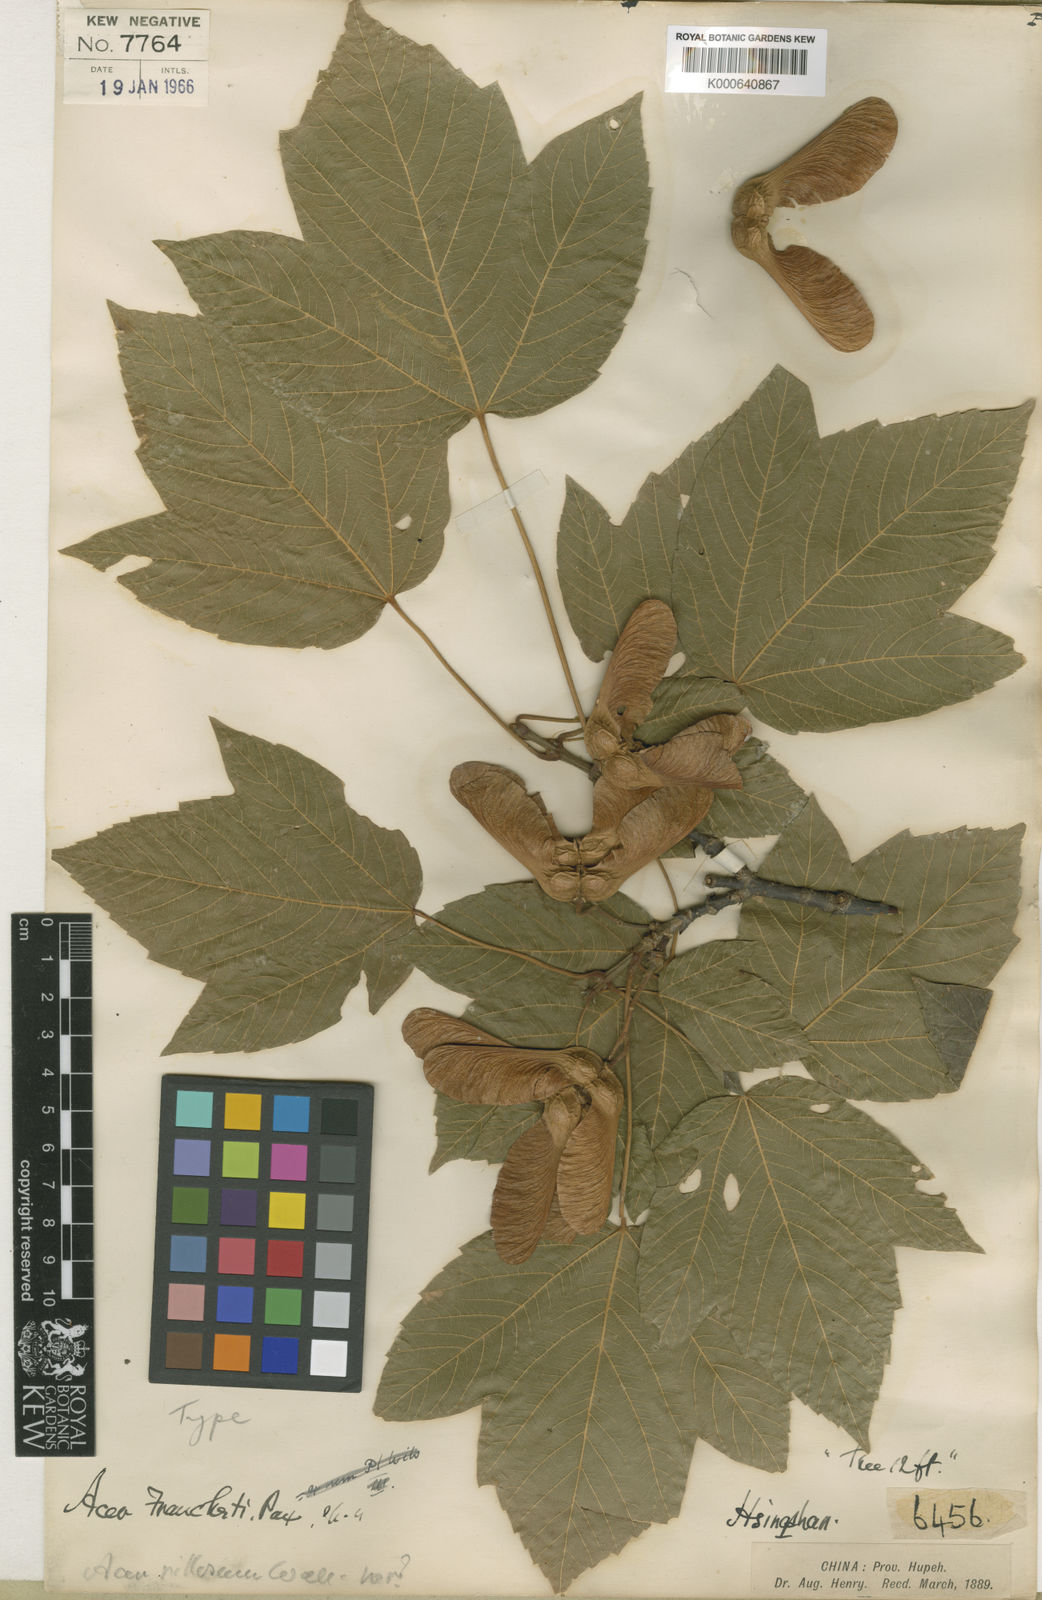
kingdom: Plantae
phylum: Tracheophyta
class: Magnoliopsida
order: Sapindales
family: Sapindaceae
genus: Acer
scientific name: Acer sterculiaceum
